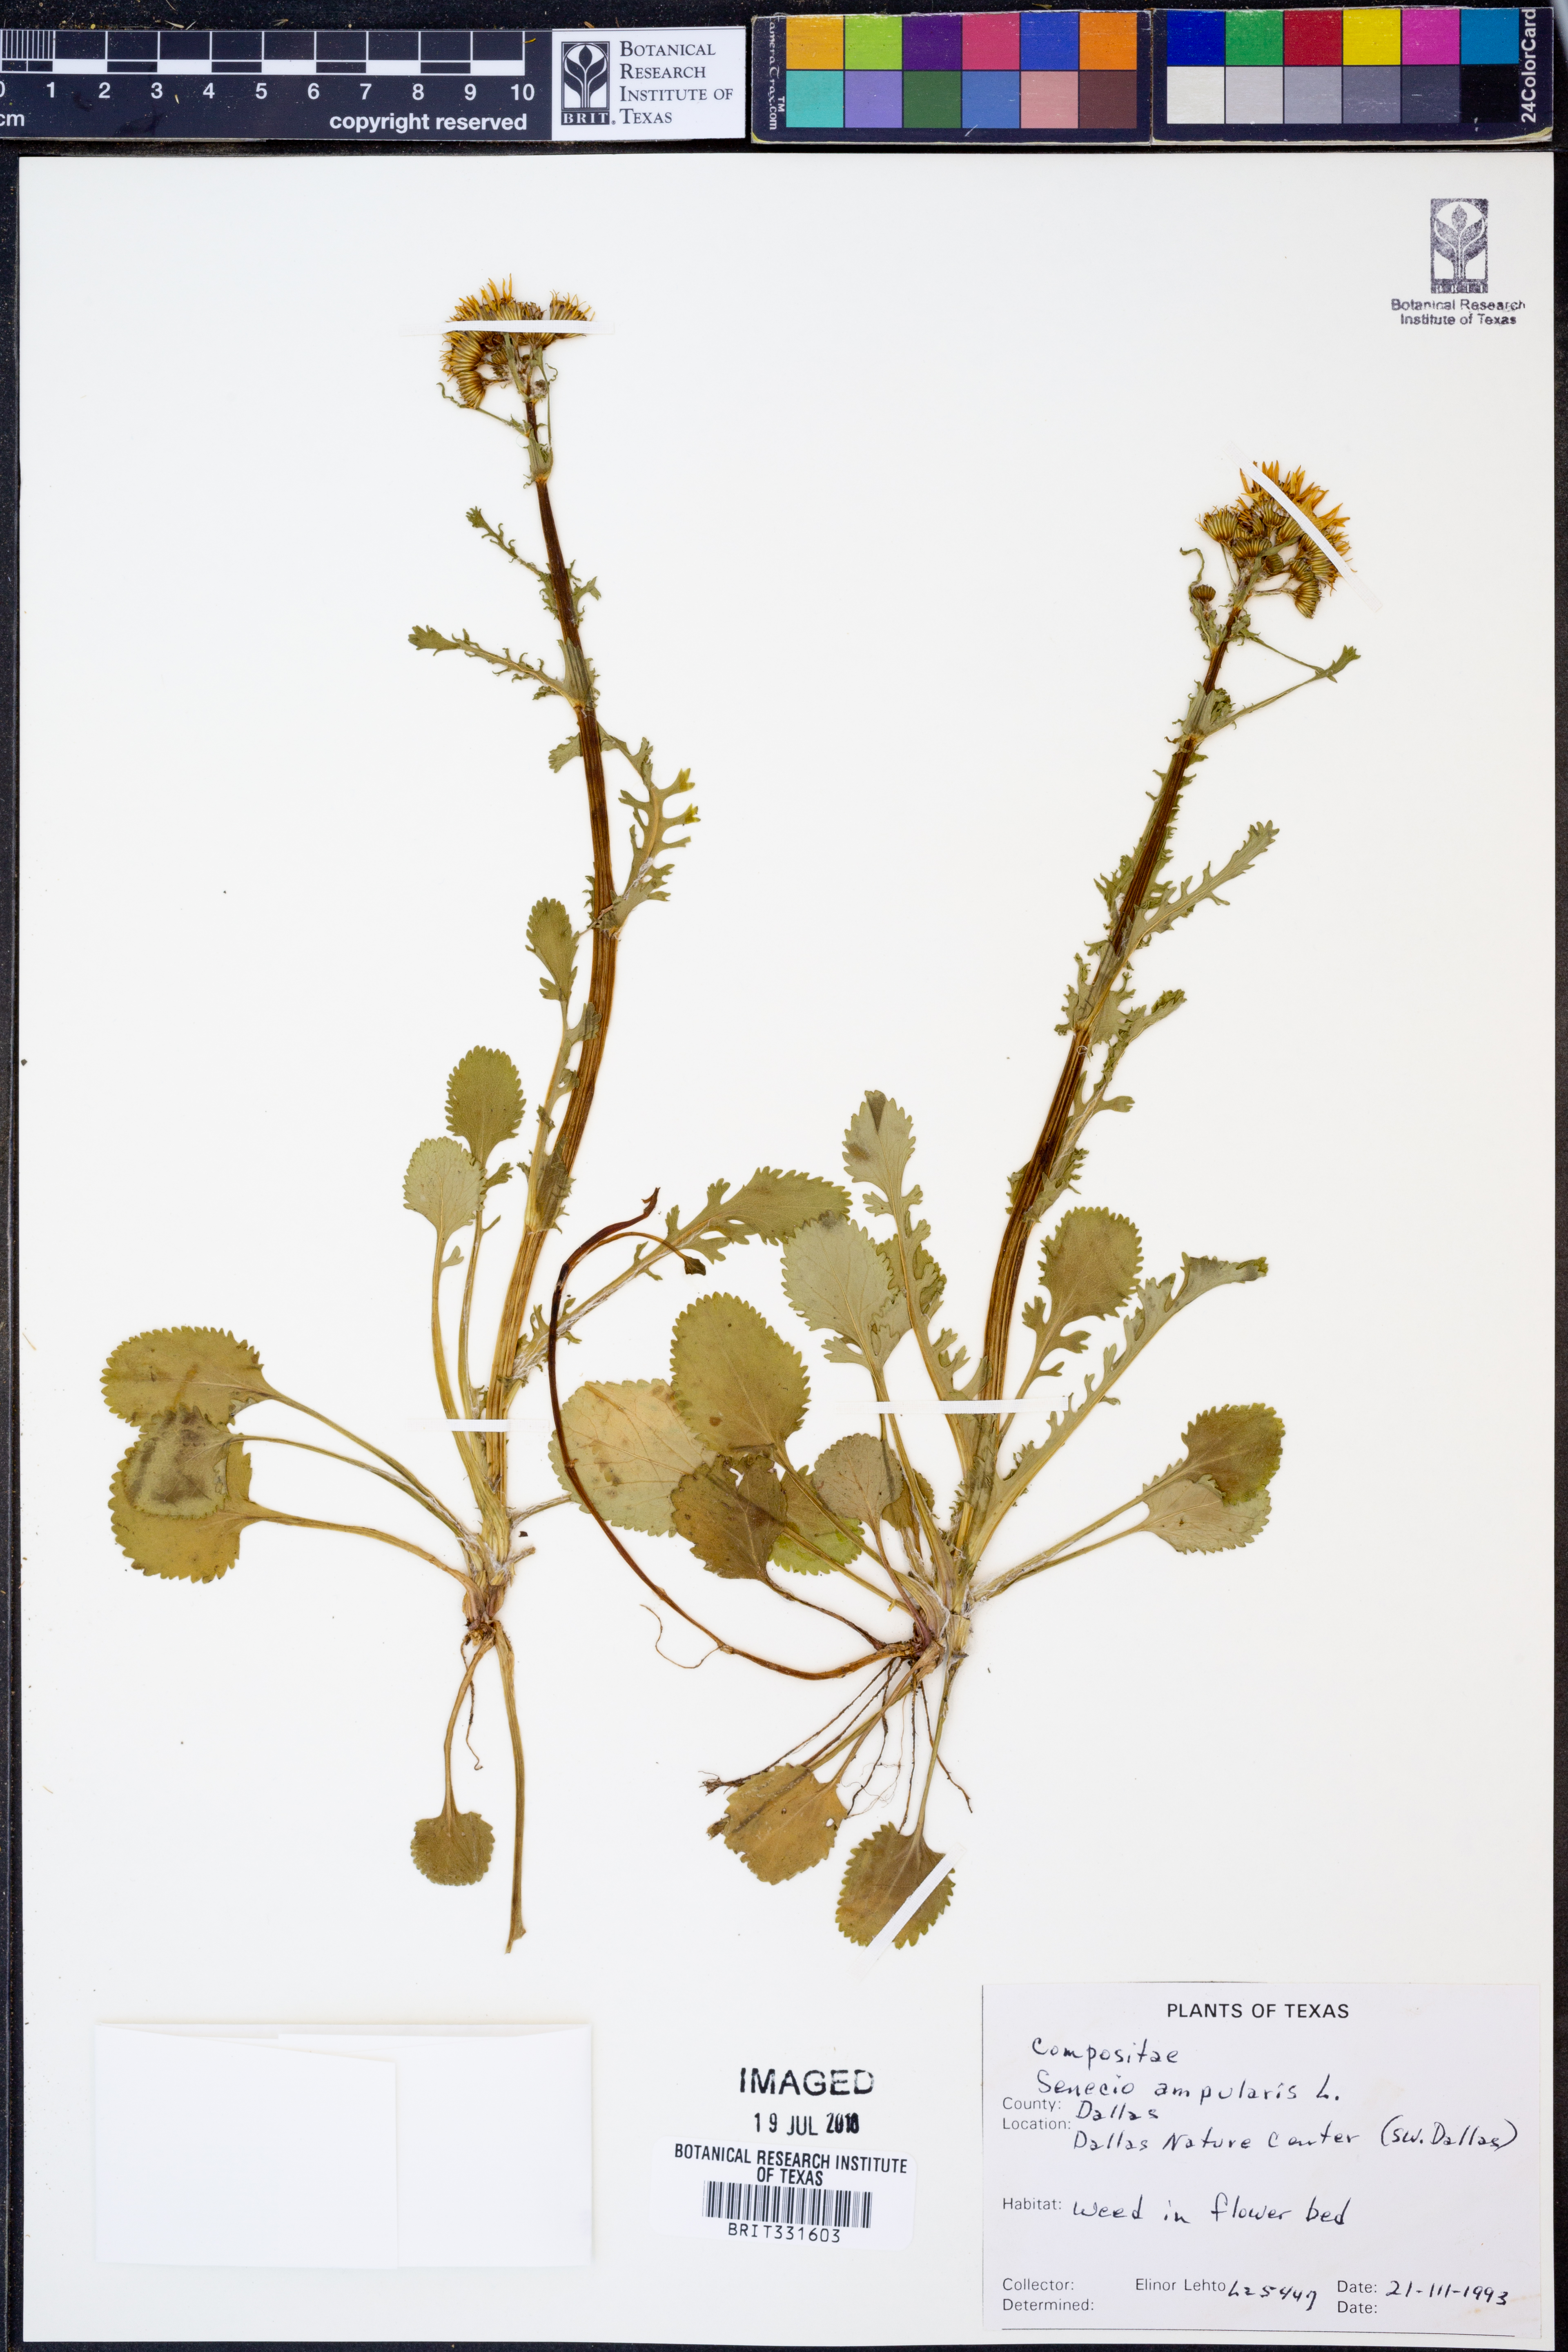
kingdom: Plantae
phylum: Tracheophyta
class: Magnoliopsida
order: Asterales
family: Asteraceae
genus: Senecio
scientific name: Senecio
